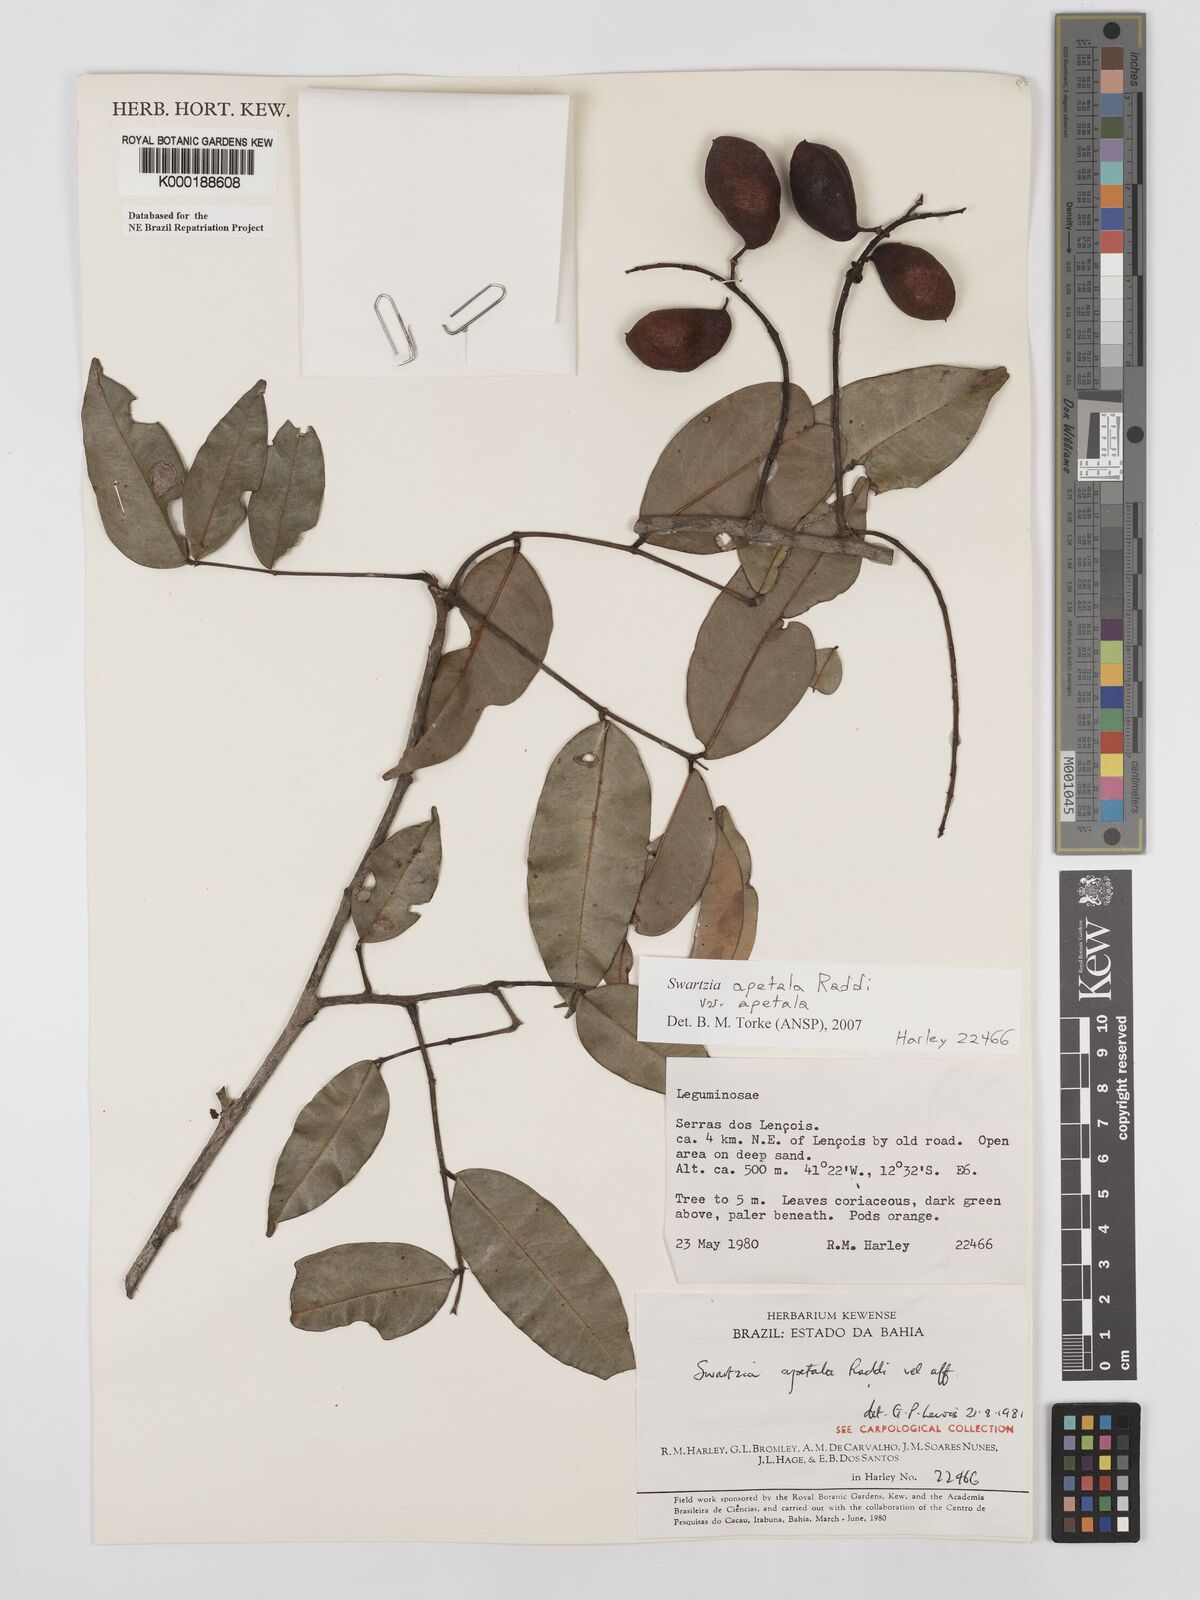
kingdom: Plantae
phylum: Tracheophyta
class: Magnoliopsida
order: Fabales
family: Fabaceae
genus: Swartzia
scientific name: Swartzia apetala
